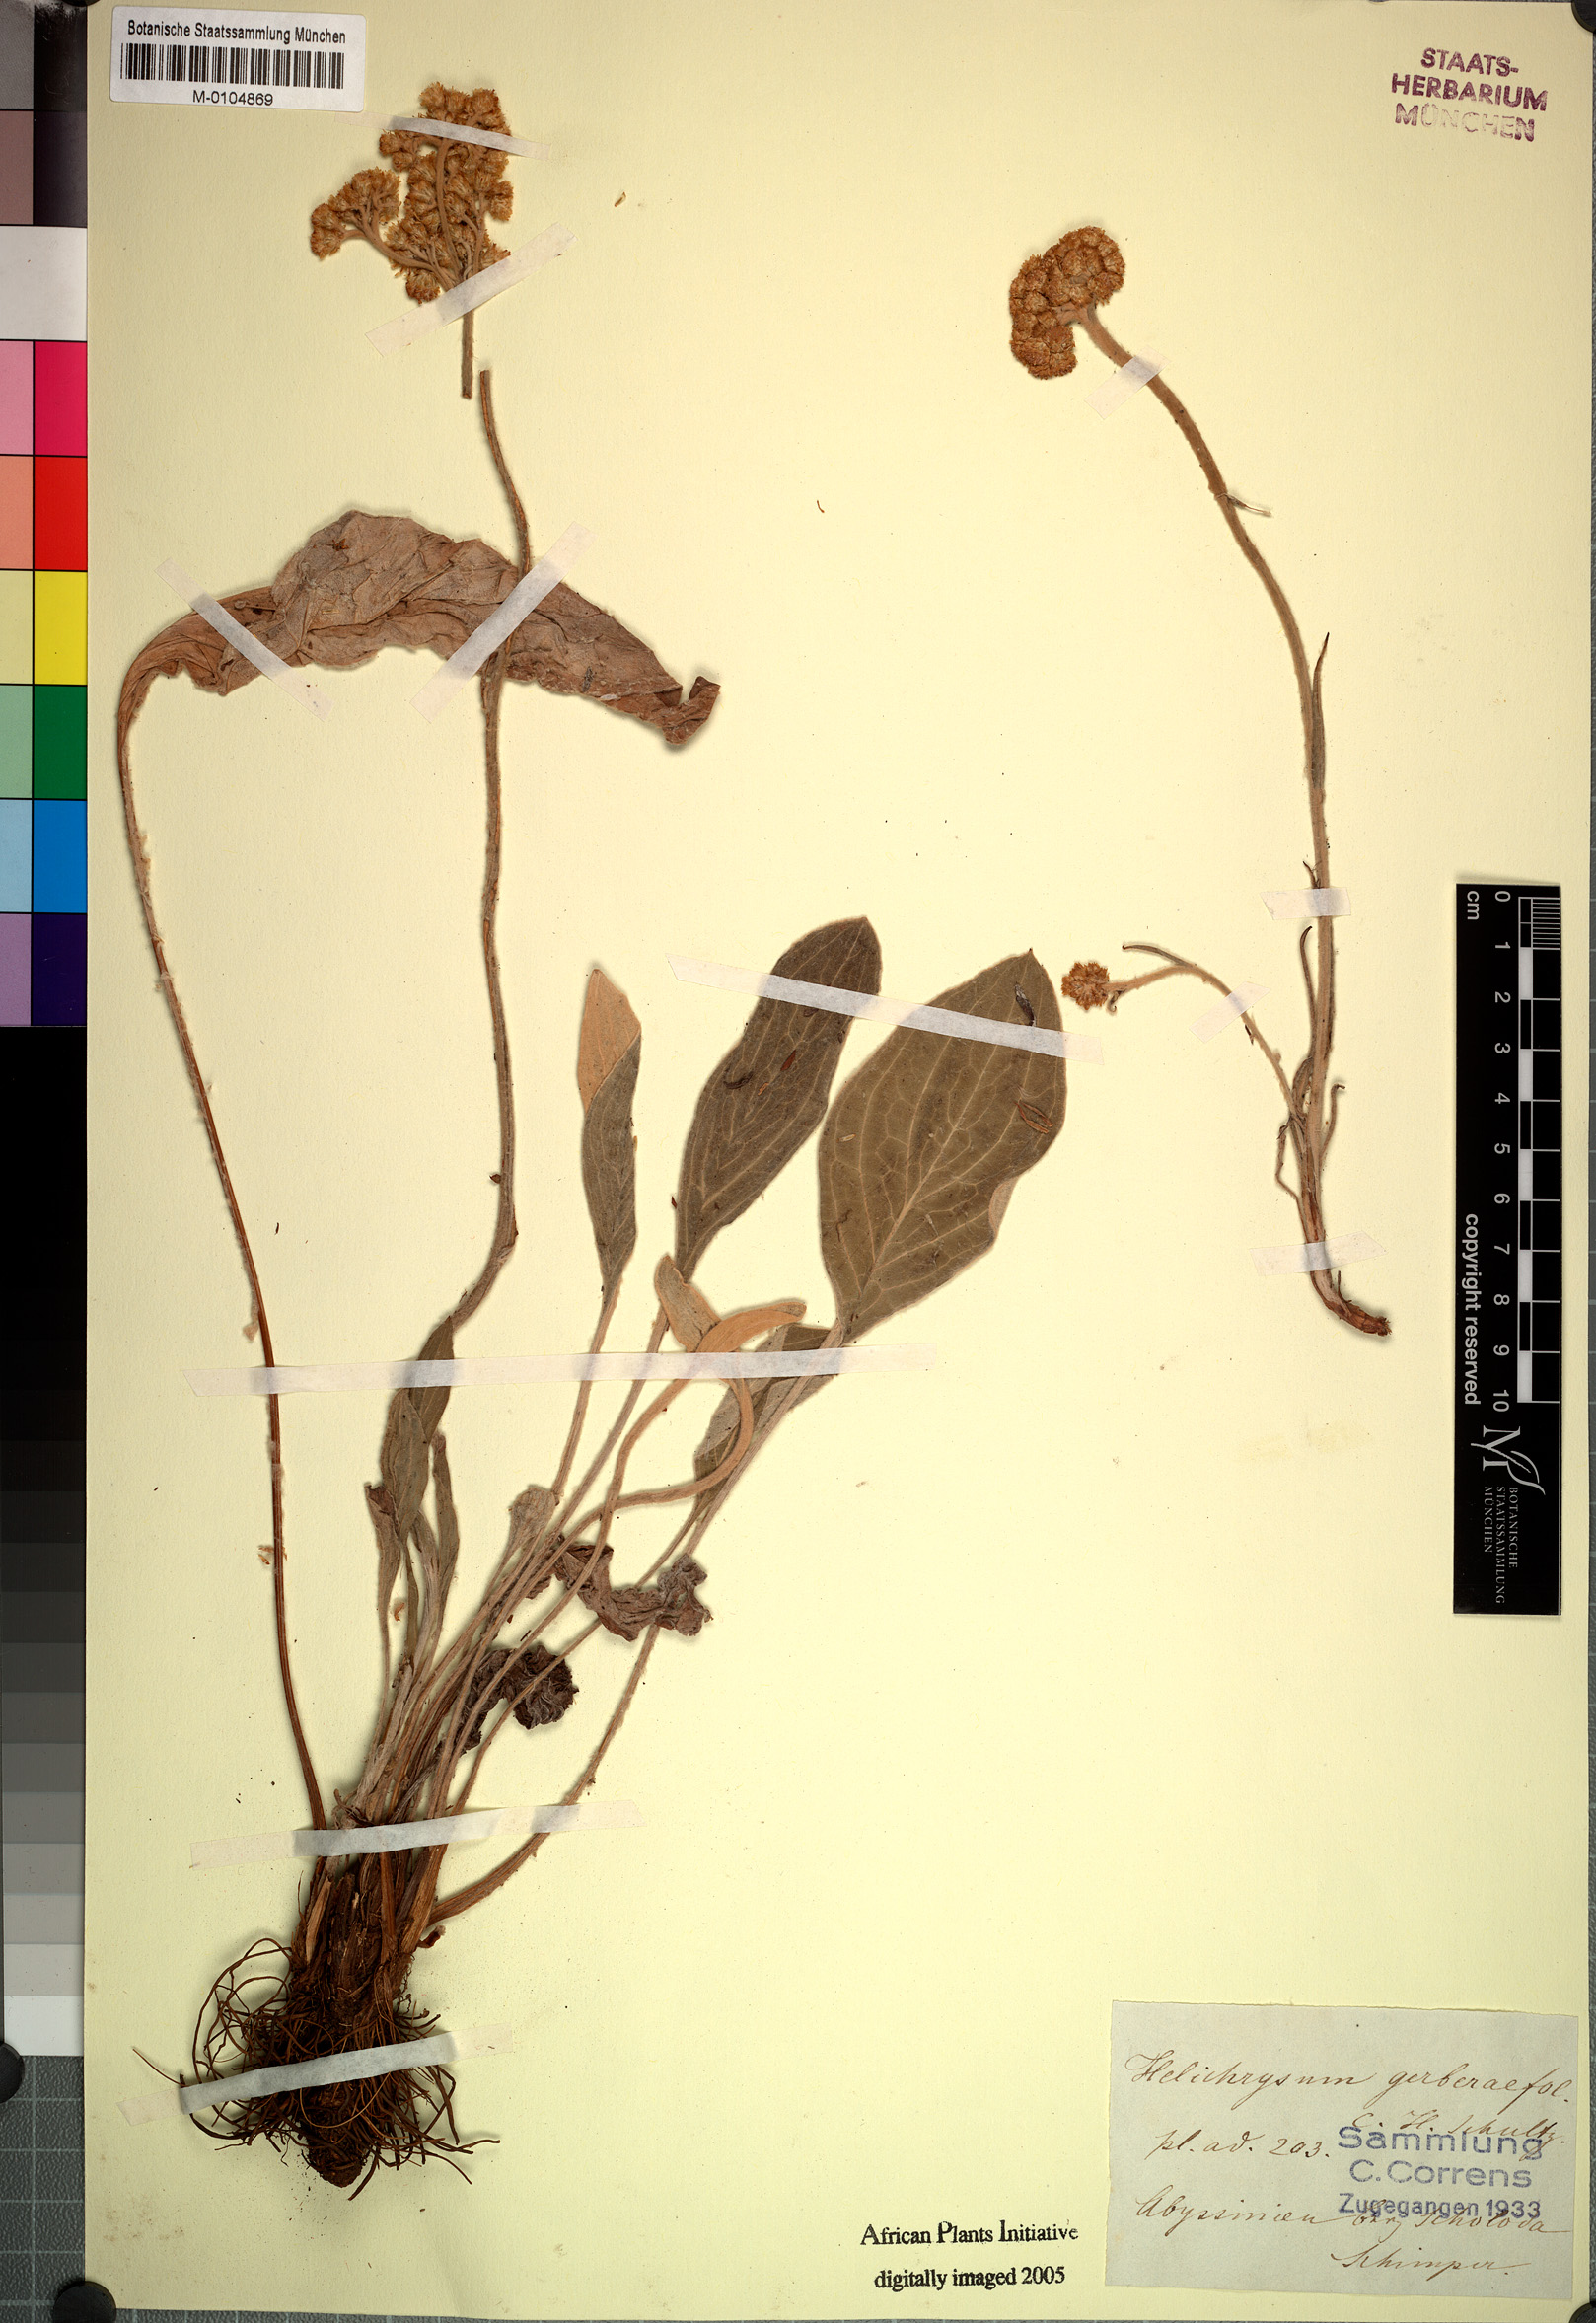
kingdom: Plantae
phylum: Tracheophyta
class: Magnoliopsida
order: Asterales
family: Asteraceae
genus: Helichrysum
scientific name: Helichrysum nudifolium
